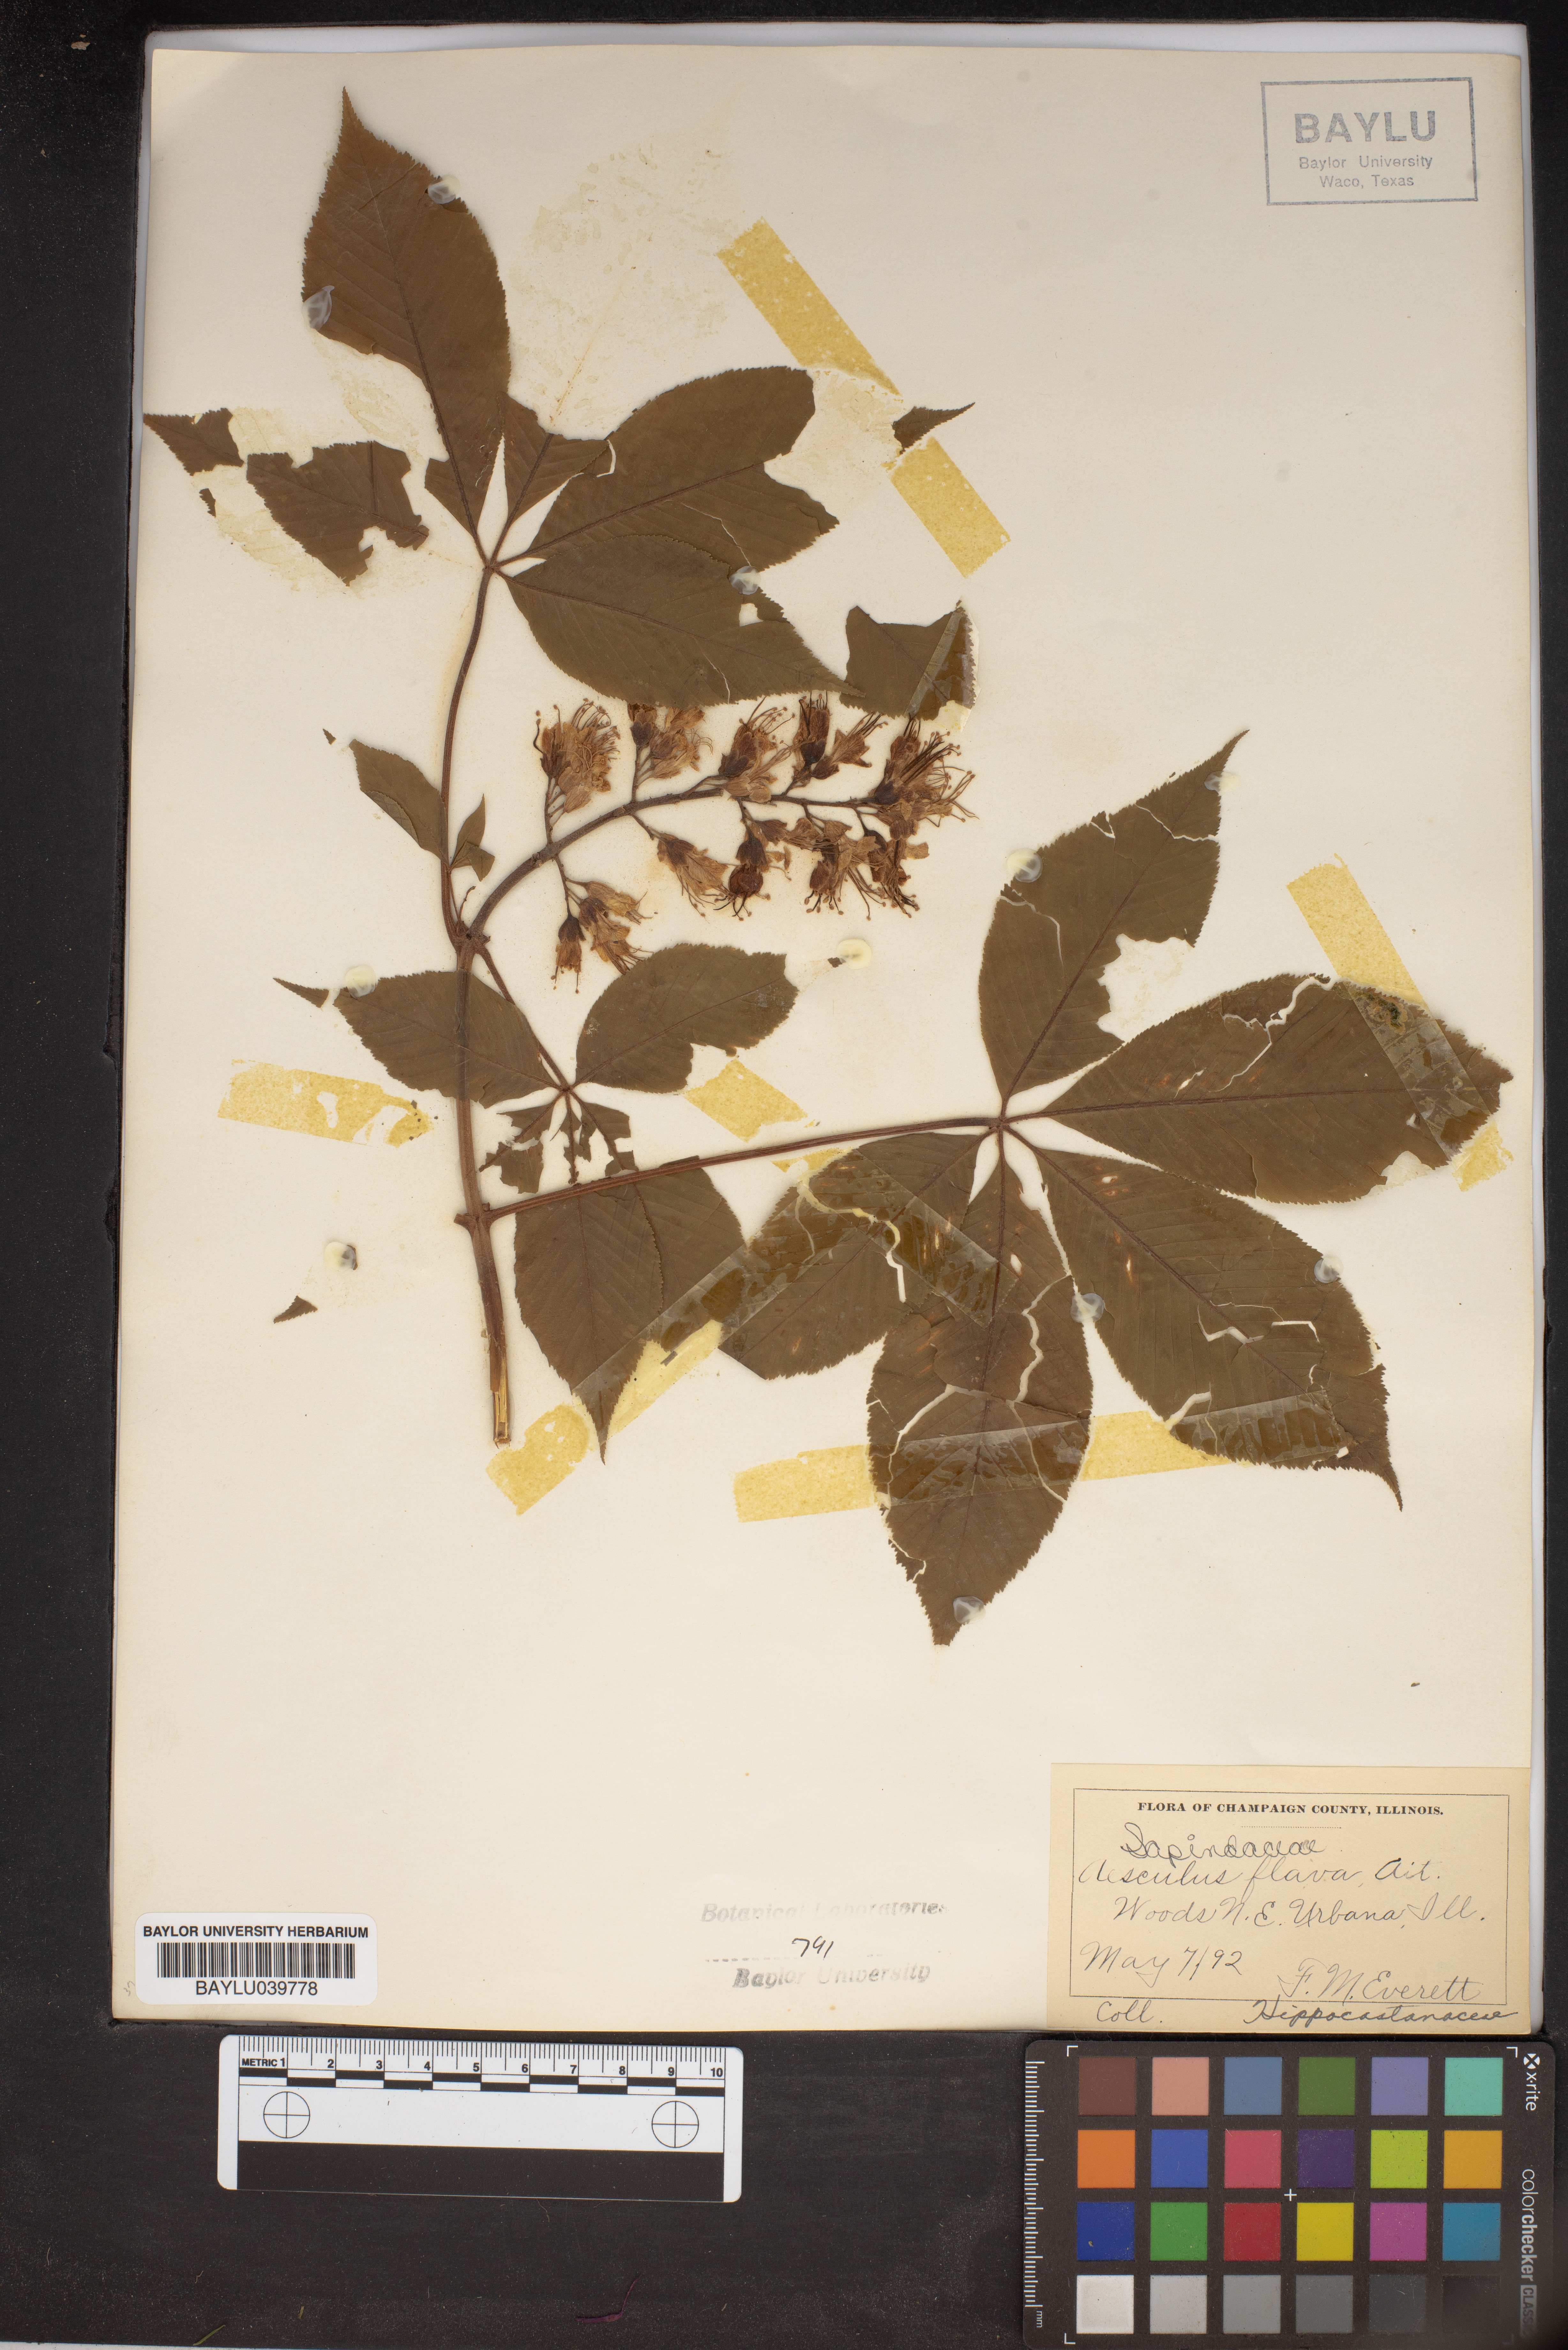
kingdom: Plantae
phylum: Tracheophyta
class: Magnoliopsida
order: Sapindales
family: Sapindaceae
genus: Aesculus
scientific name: Aesculus flava
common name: Yellow buckeye
